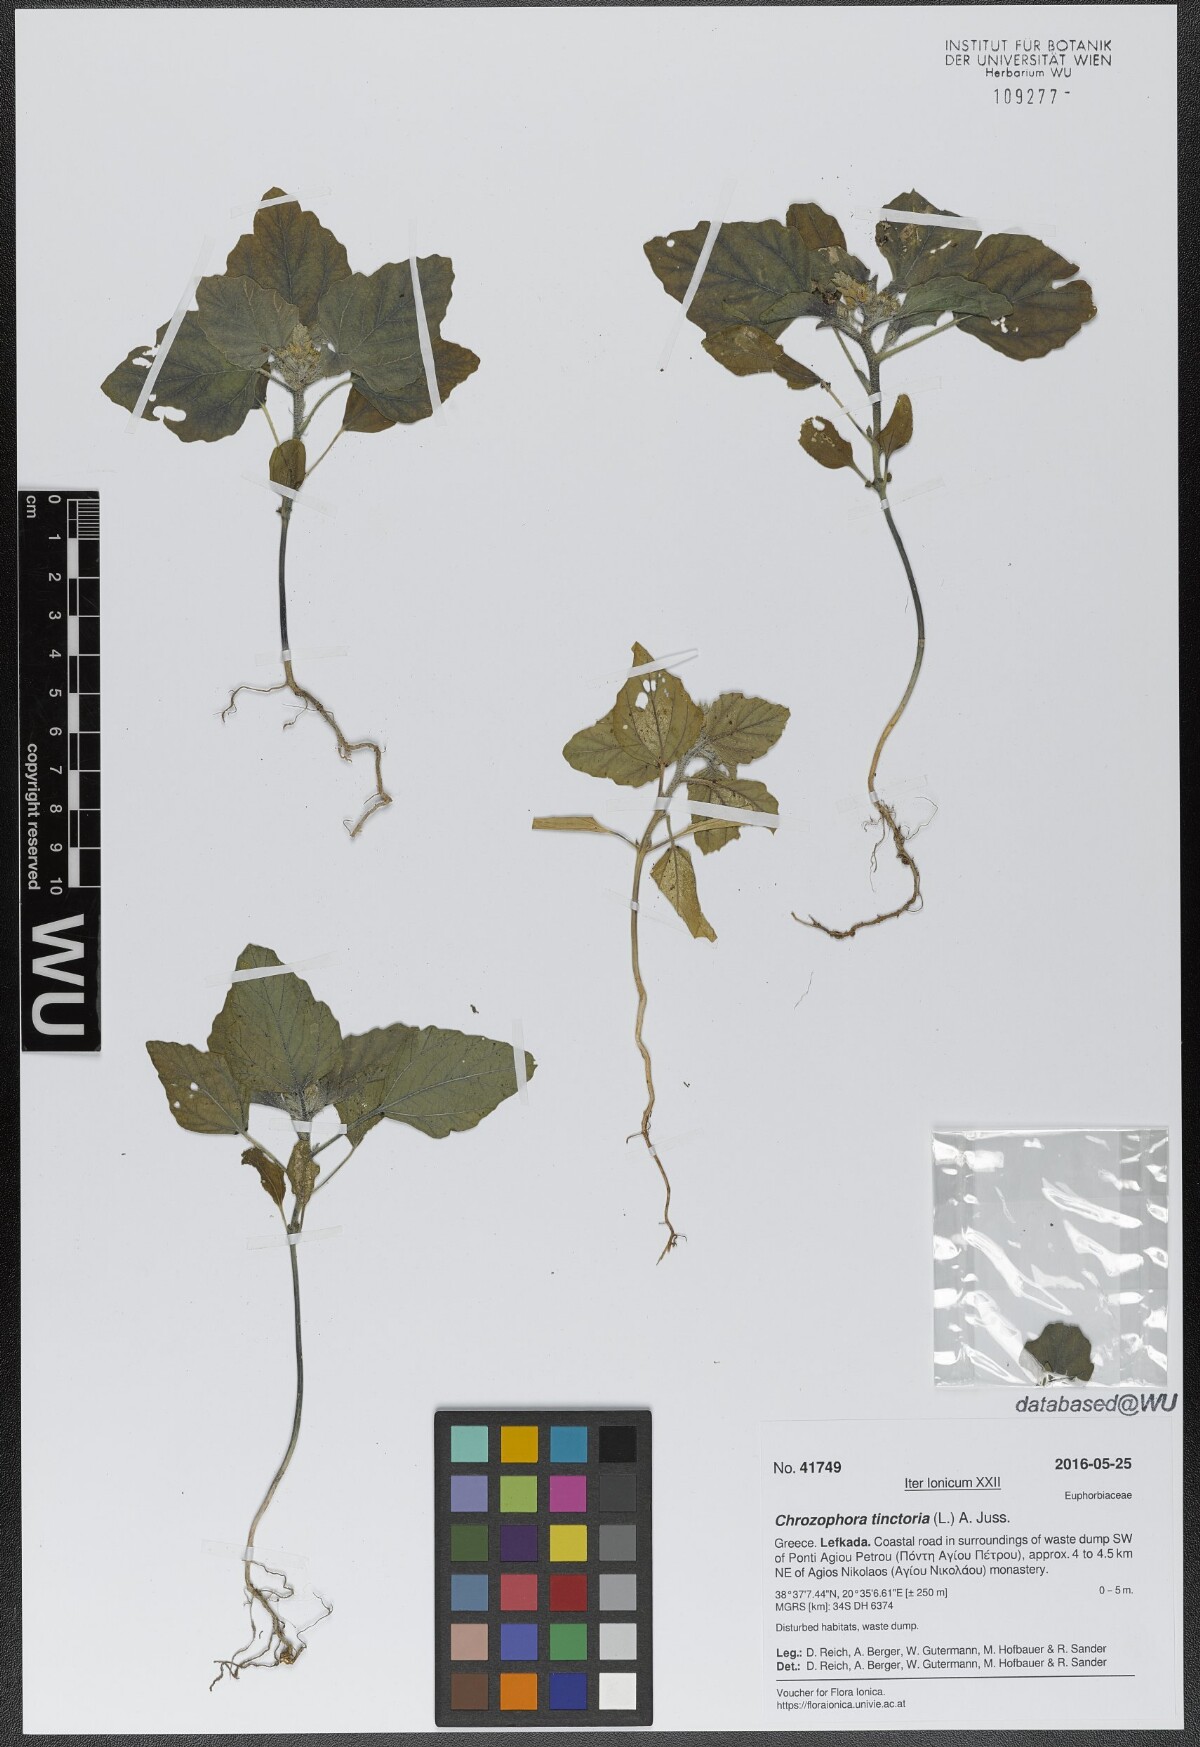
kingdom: Plantae
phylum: Tracheophyta
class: Magnoliopsida
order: Malpighiales
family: Euphorbiaceae
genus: Chrozophora
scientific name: Chrozophora tinctoria
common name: Dyer's litmus
